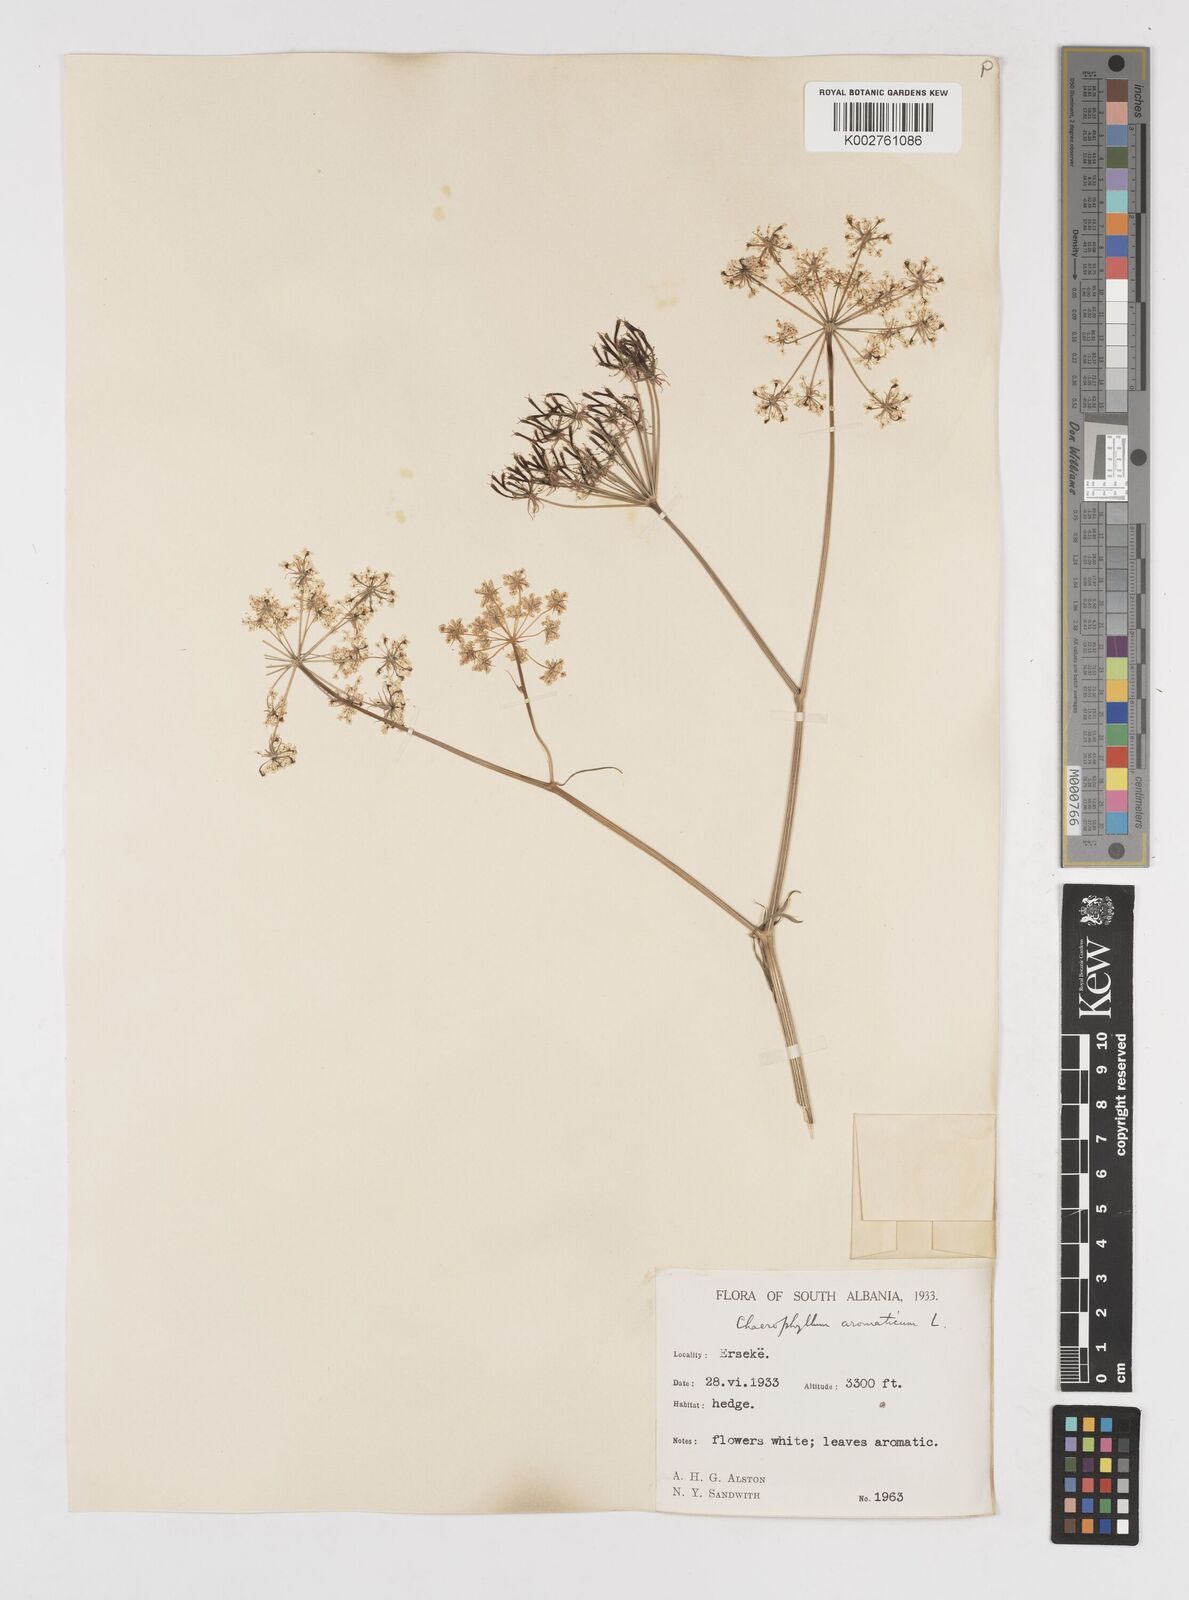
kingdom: Plantae
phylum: Tracheophyta
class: Magnoliopsida
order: Apiales
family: Apiaceae
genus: Chaerophyllum
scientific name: Chaerophyllum aromaticum
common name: Broadleaf chervil
